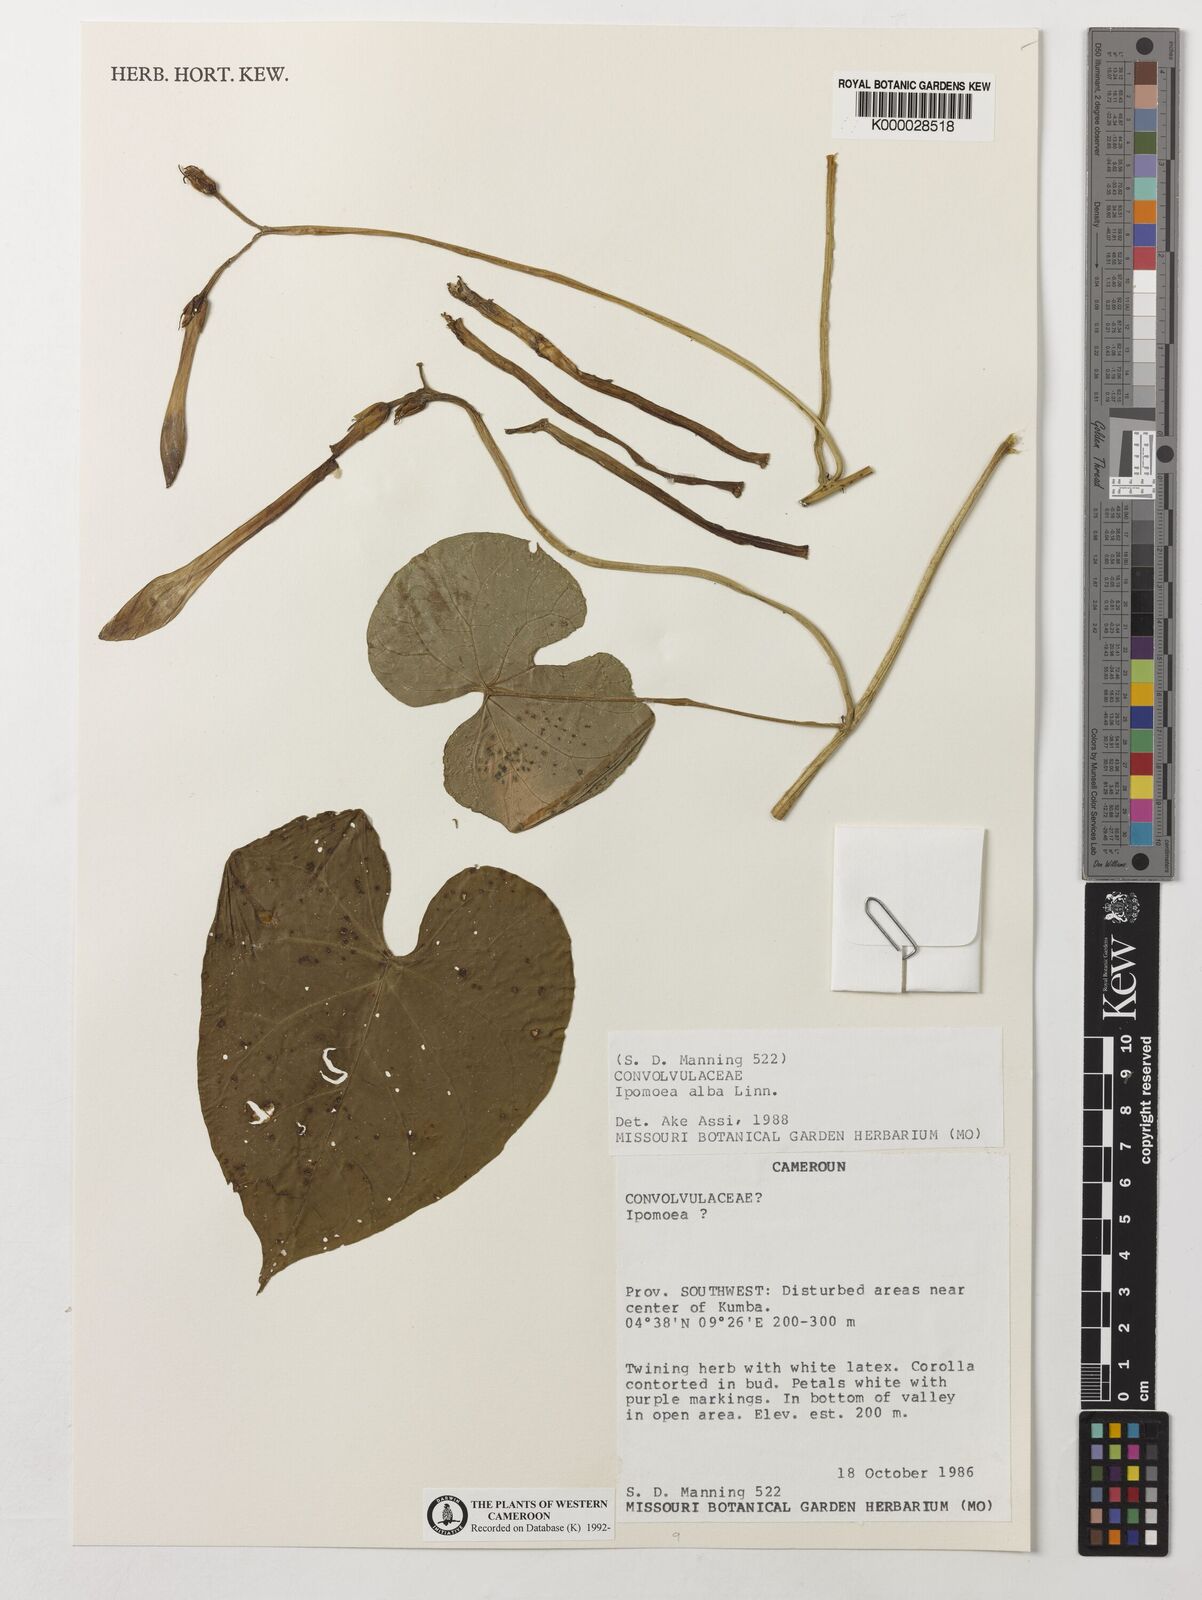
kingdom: Plantae
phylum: Tracheophyta
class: Magnoliopsida
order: Solanales
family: Convolvulaceae
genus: Ipomoea
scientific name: Ipomoea alba
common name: Moonflower
